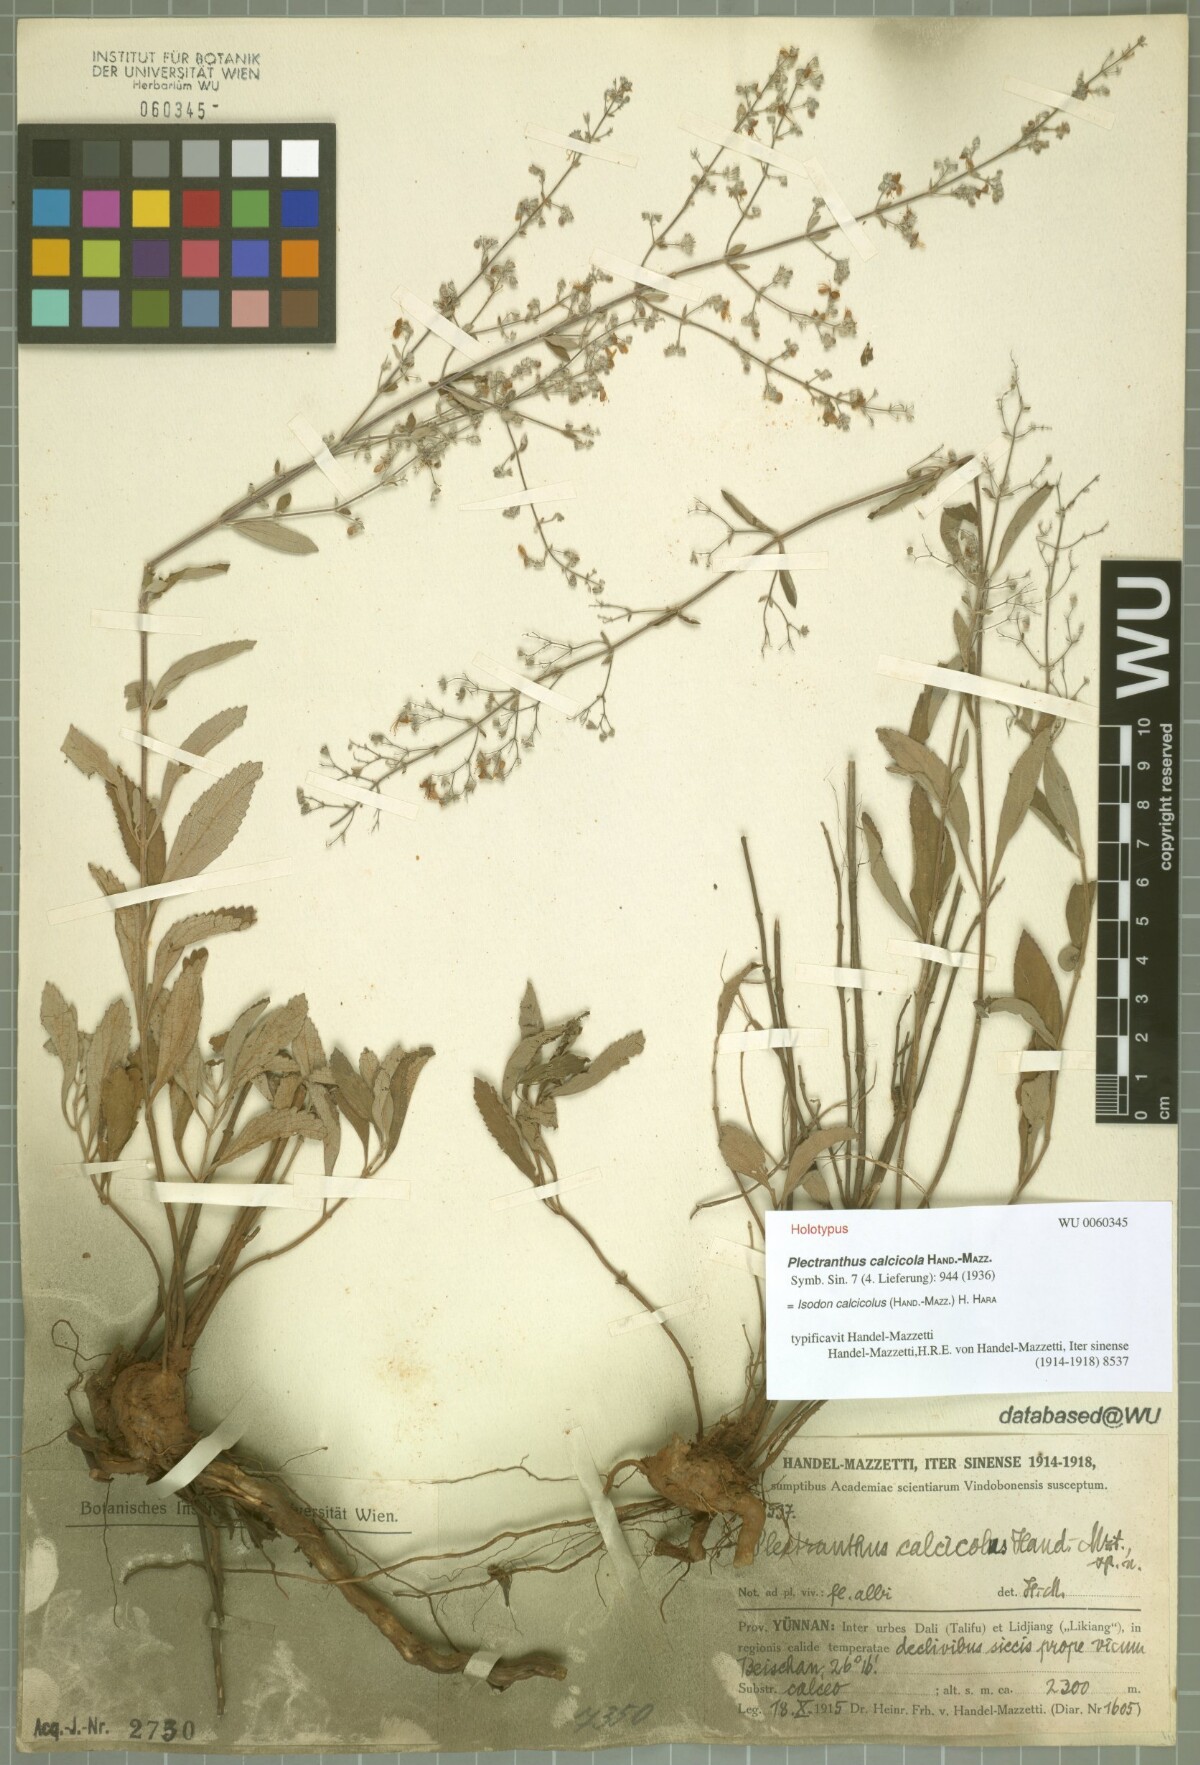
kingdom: Plantae
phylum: Tracheophyta
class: Magnoliopsida
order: Lamiales
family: Lamiaceae
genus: Isodon
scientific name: Isodon calcicola
